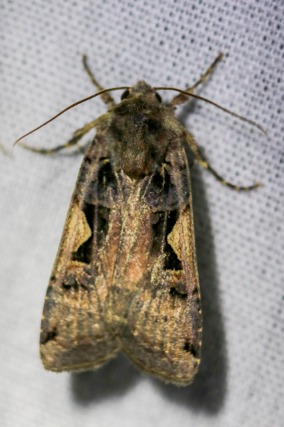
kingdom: Animalia
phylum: Arthropoda
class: Insecta
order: Lepidoptera
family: Noctuidae
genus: Xestia
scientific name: Xestia c-nigrum
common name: Det sorte c
